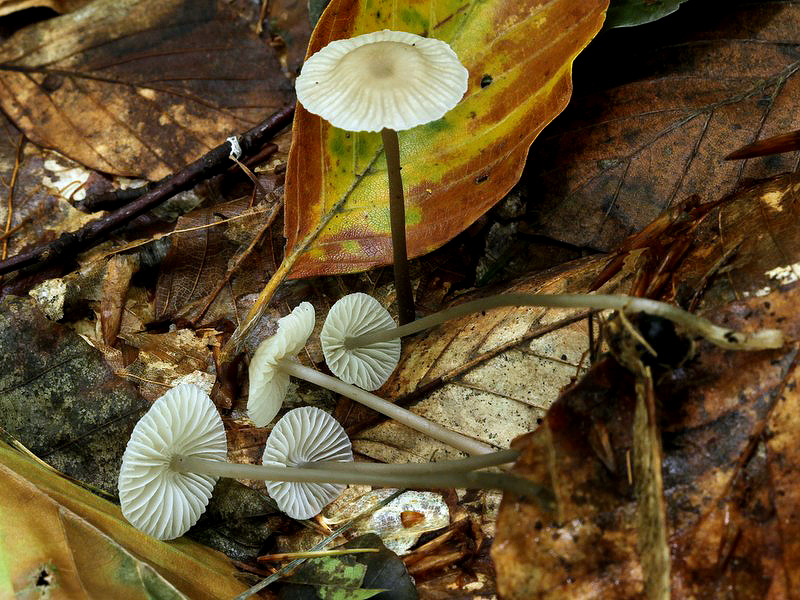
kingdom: Fungi
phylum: Basidiomycota
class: Agaricomycetes
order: Agaricales
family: Mycenaceae
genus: Mycena
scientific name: Mycena flavescens
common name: grågul huesvamp
